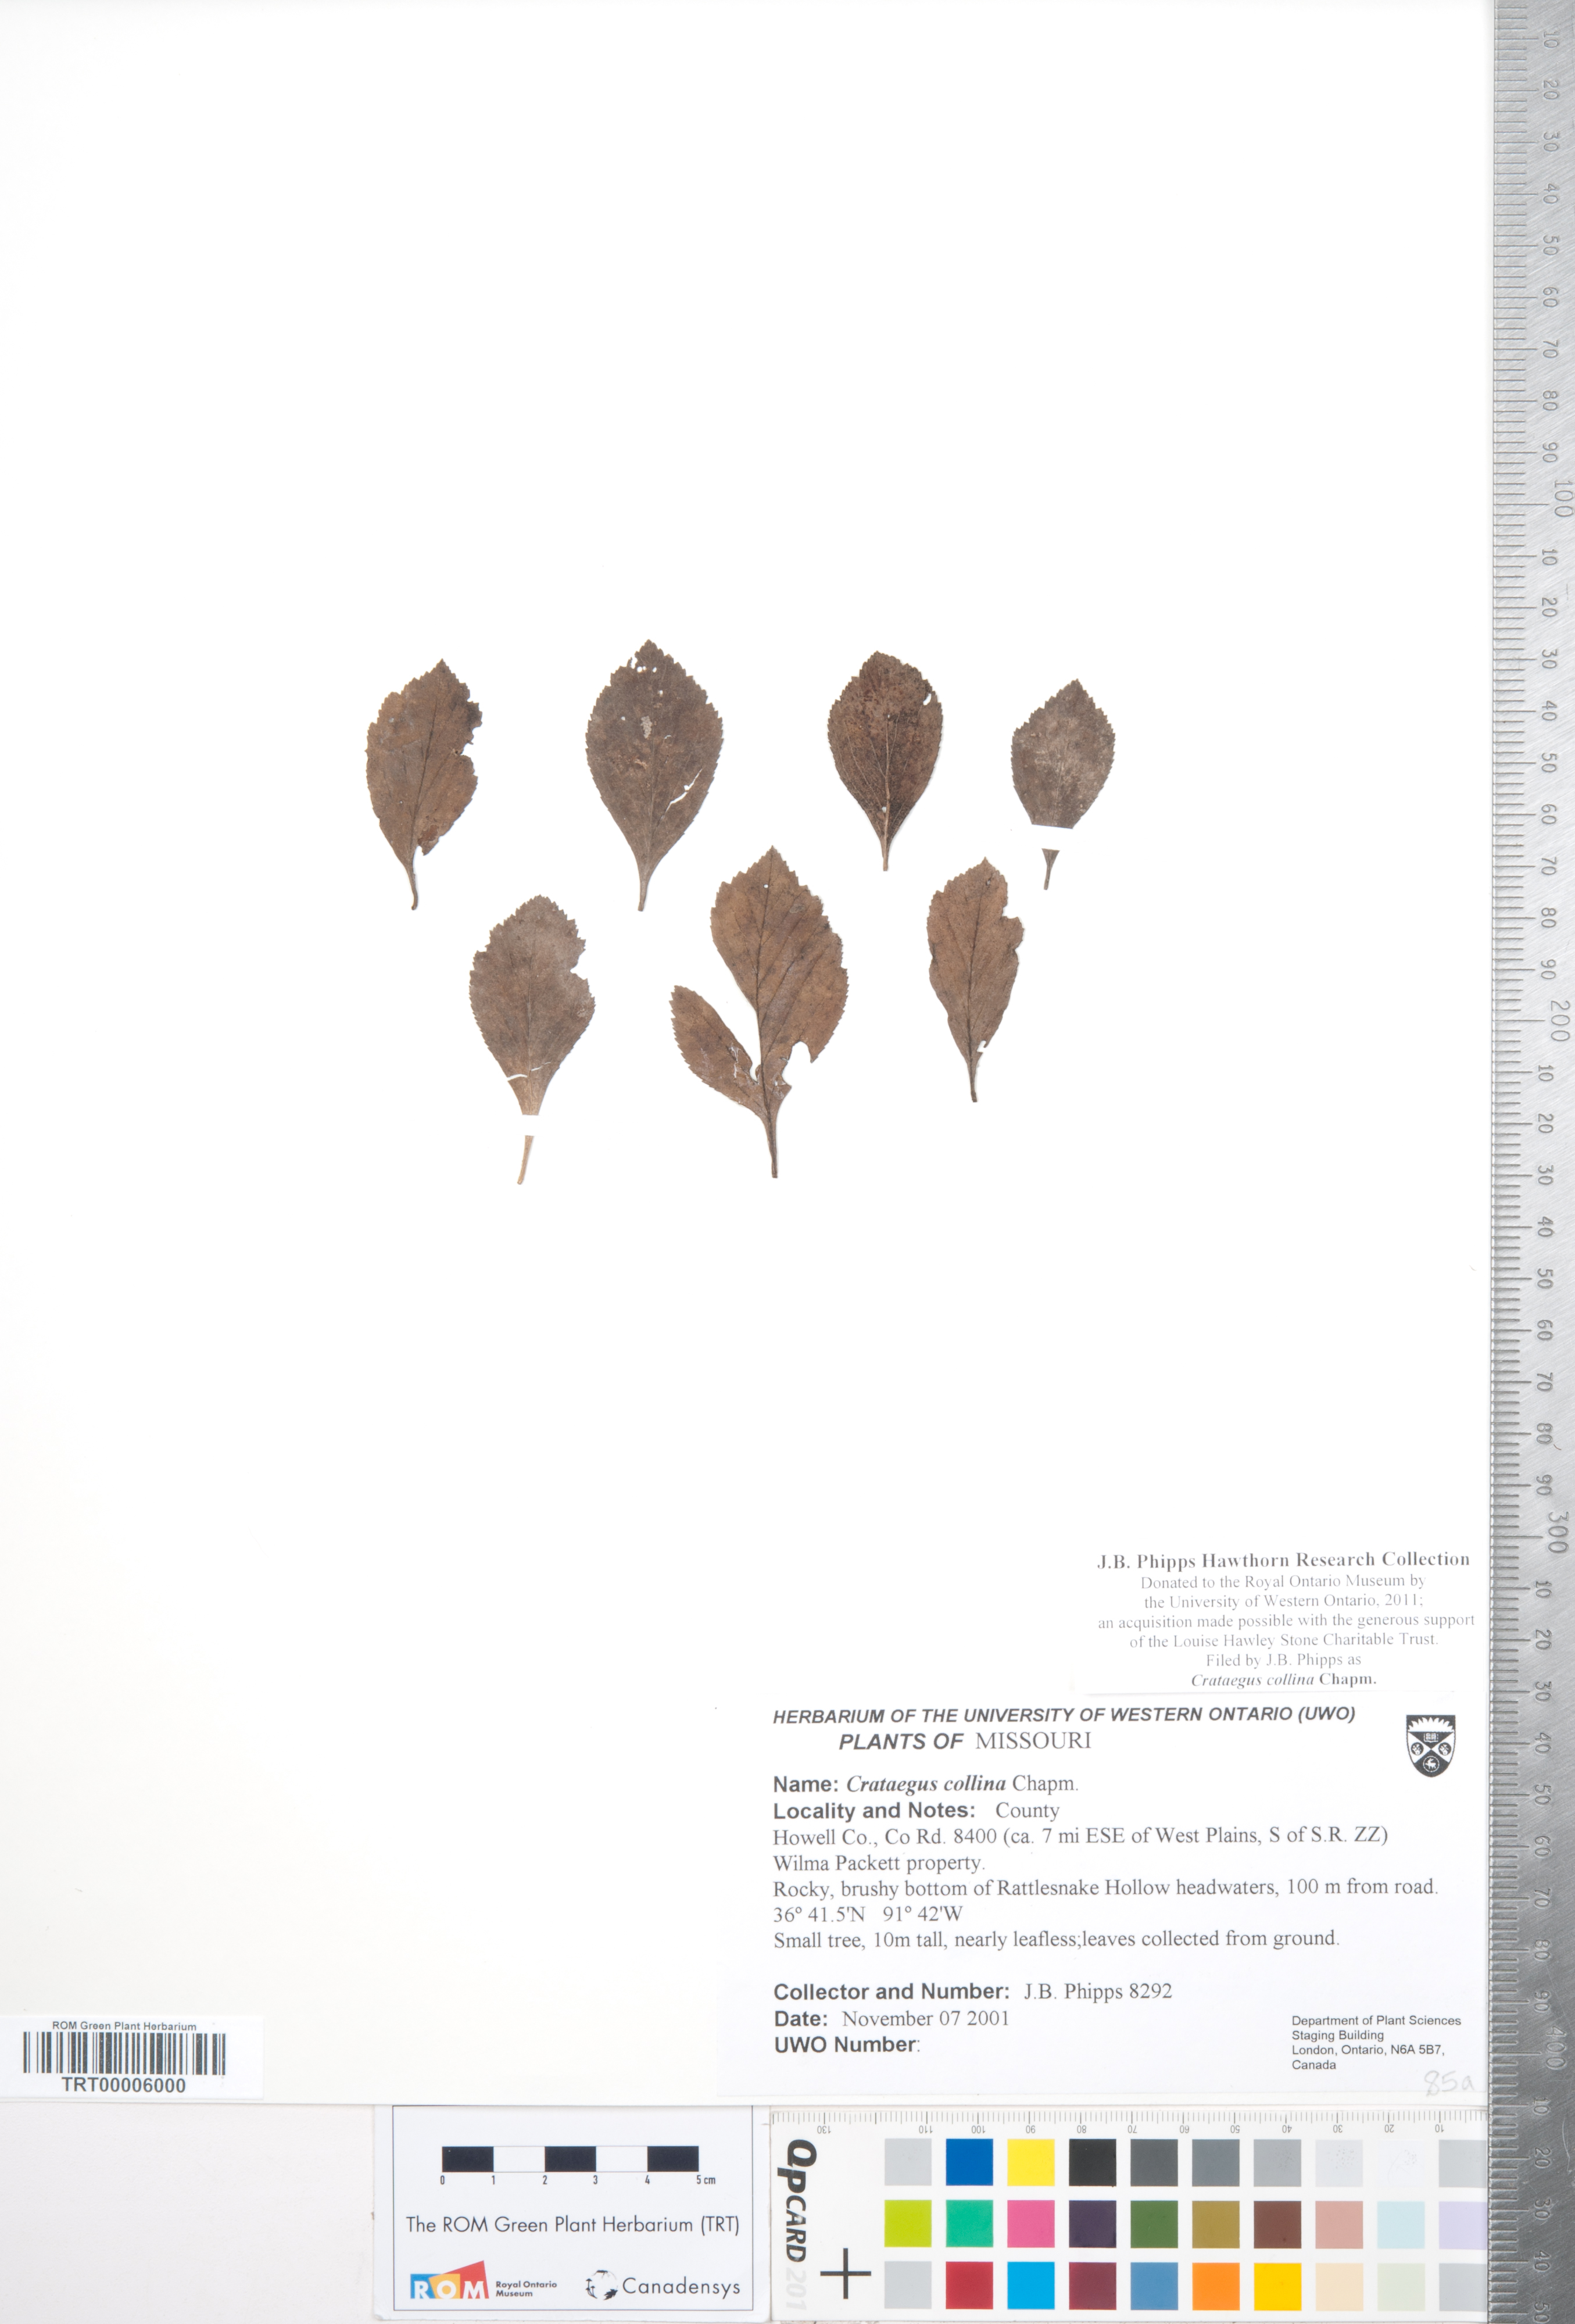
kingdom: Plantae
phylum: Tracheophyta
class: Magnoliopsida
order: Rosales
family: Rosaceae
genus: Crataegus
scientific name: Crataegus collina
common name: Hillside hawthorn
